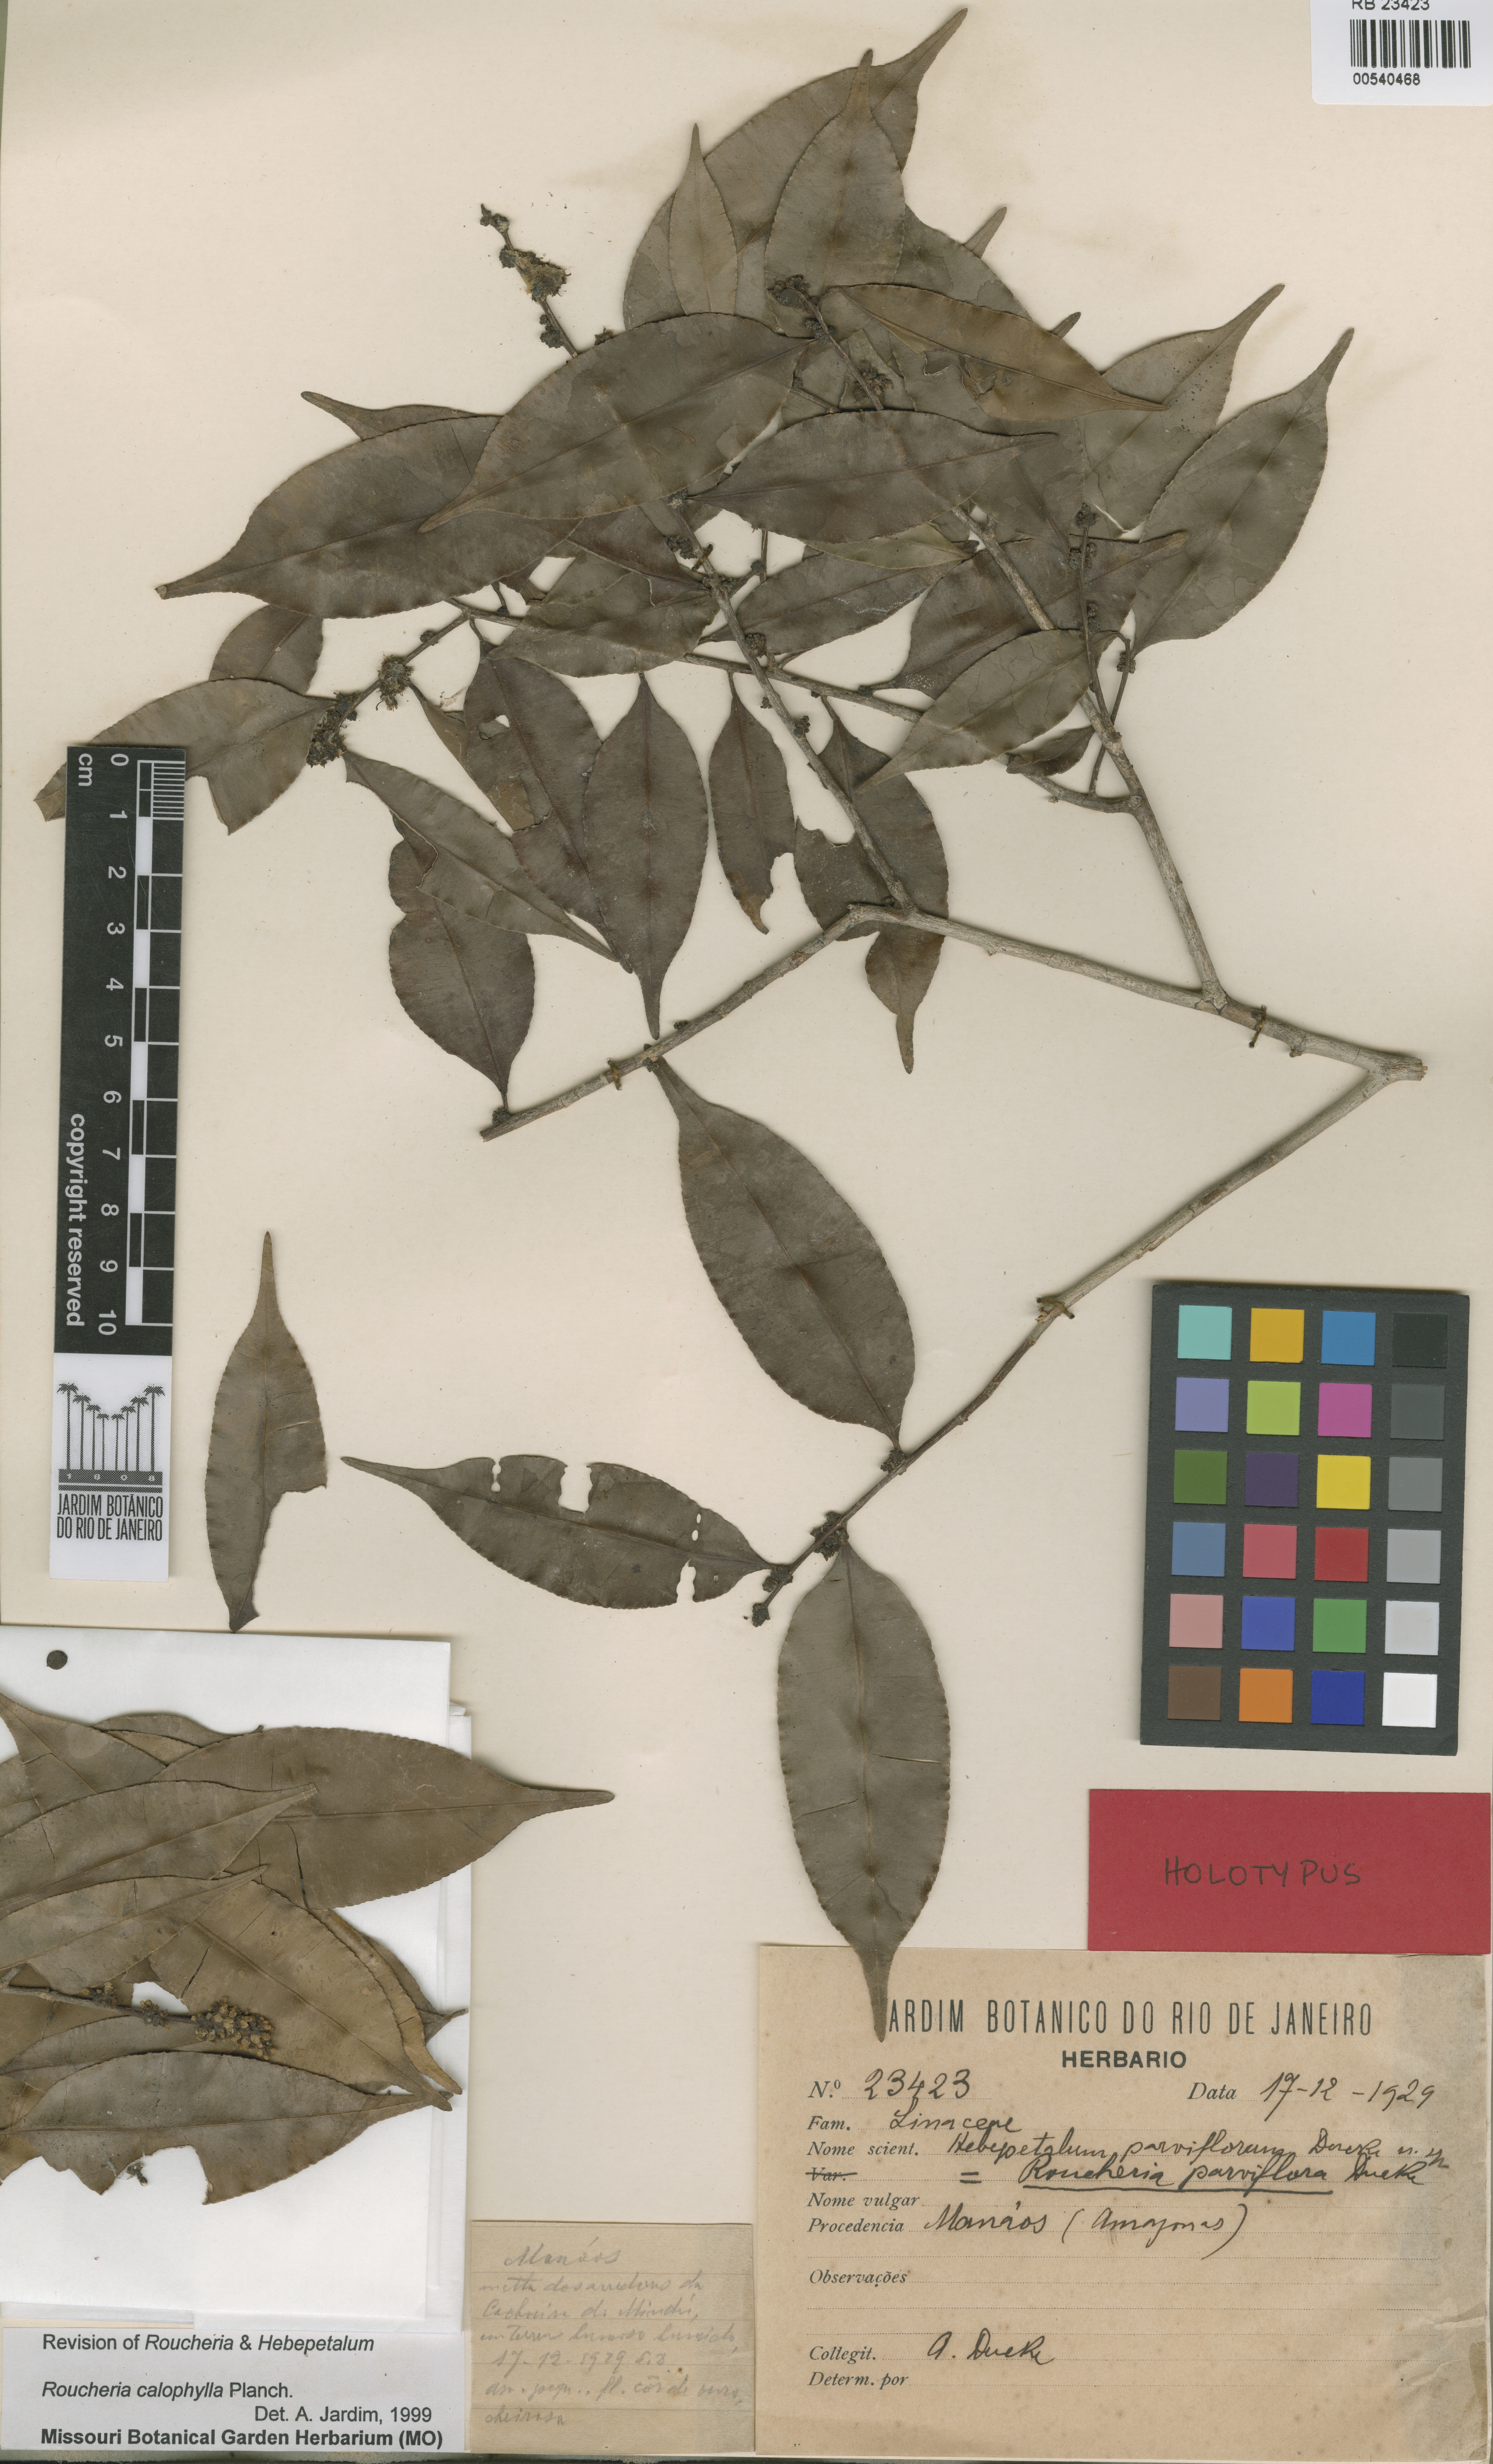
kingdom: Plantae
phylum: Tracheophyta
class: Magnoliopsida
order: Malpighiales
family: Linaceae
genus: Roucheria
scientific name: Roucheria calophylla
